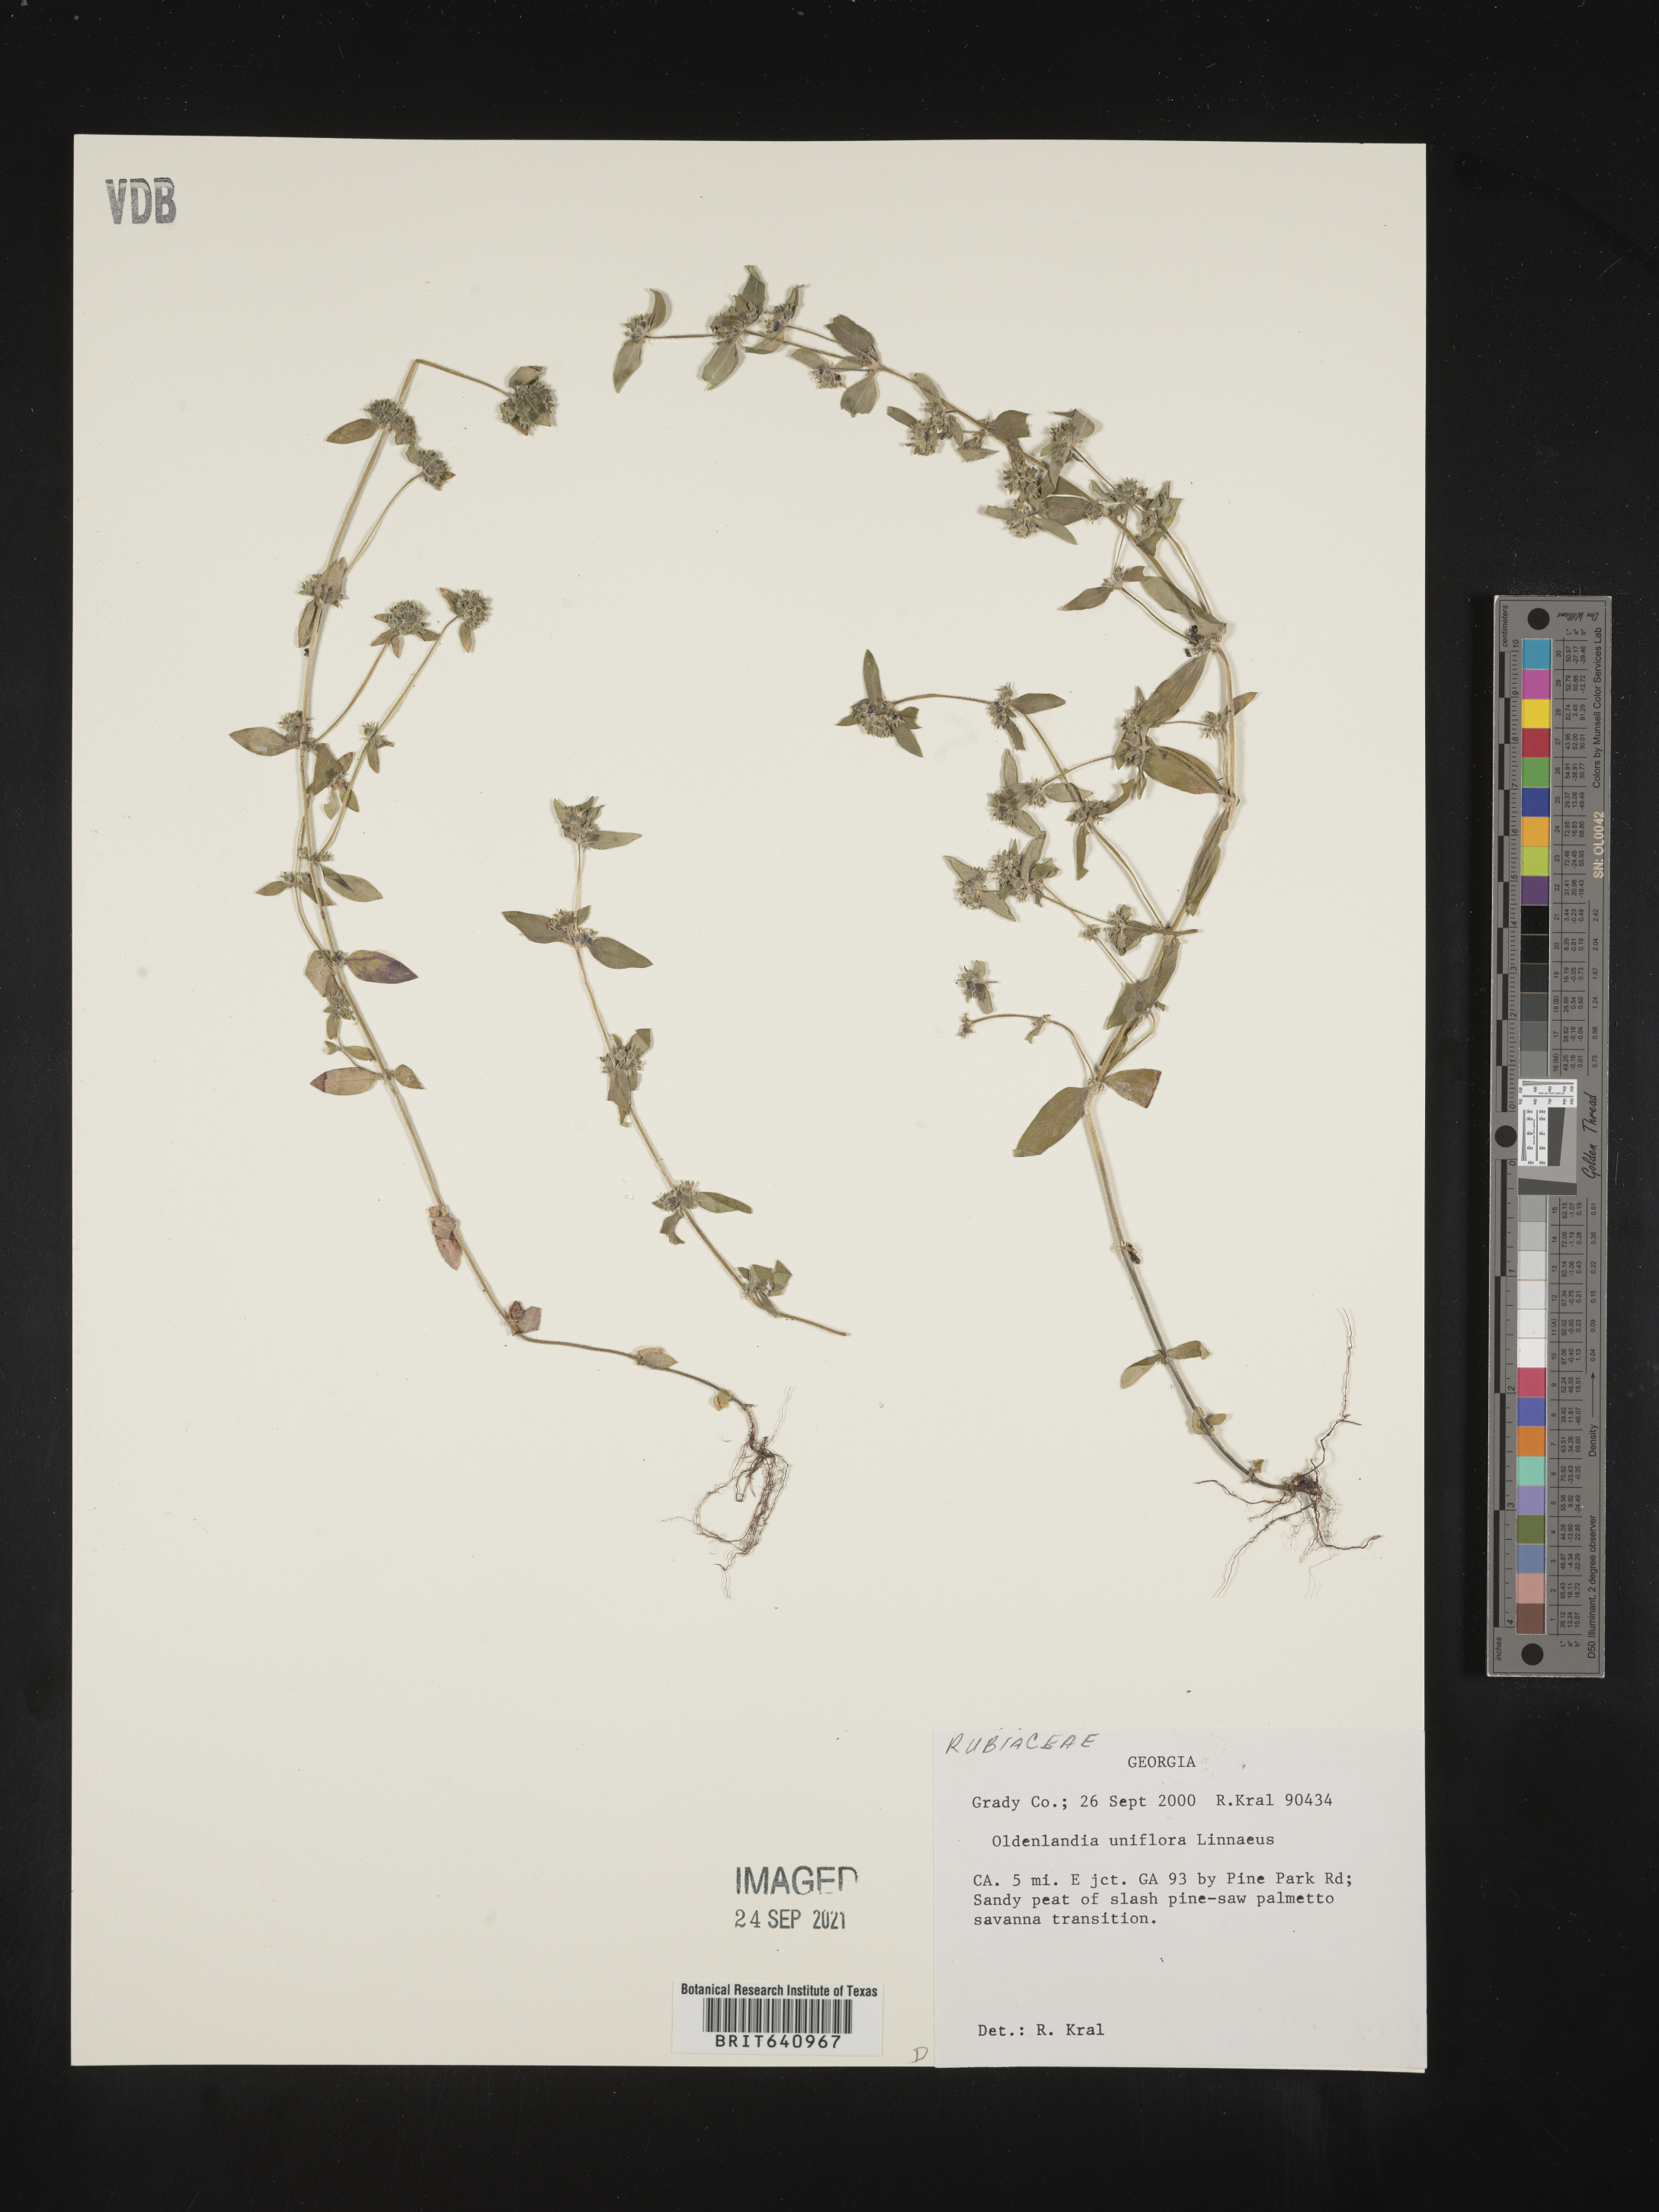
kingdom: Plantae
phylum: Tracheophyta
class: Magnoliopsida
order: Gentianales
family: Rubiaceae
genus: Edrastima
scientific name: Edrastima uniflora
